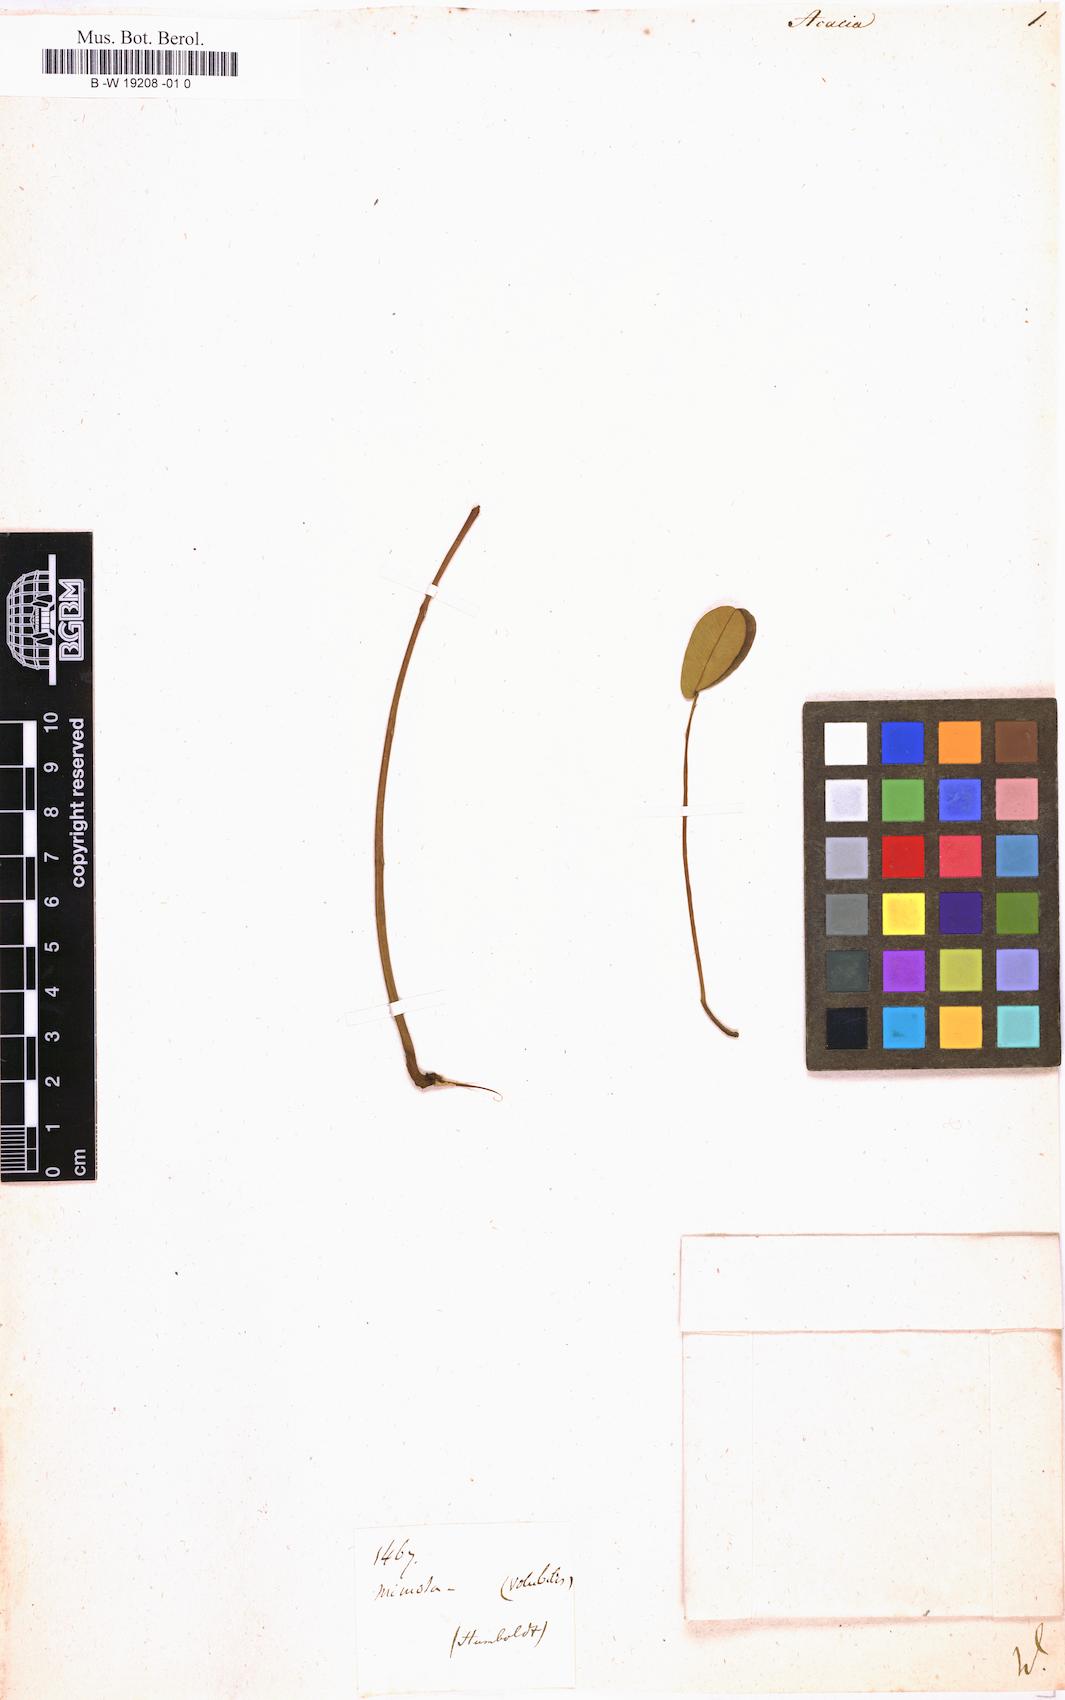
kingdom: Plantae
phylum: Tracheophyta
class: Magnoliopsida
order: Fabales
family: Fabaceae
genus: Acacia
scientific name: Acacia
